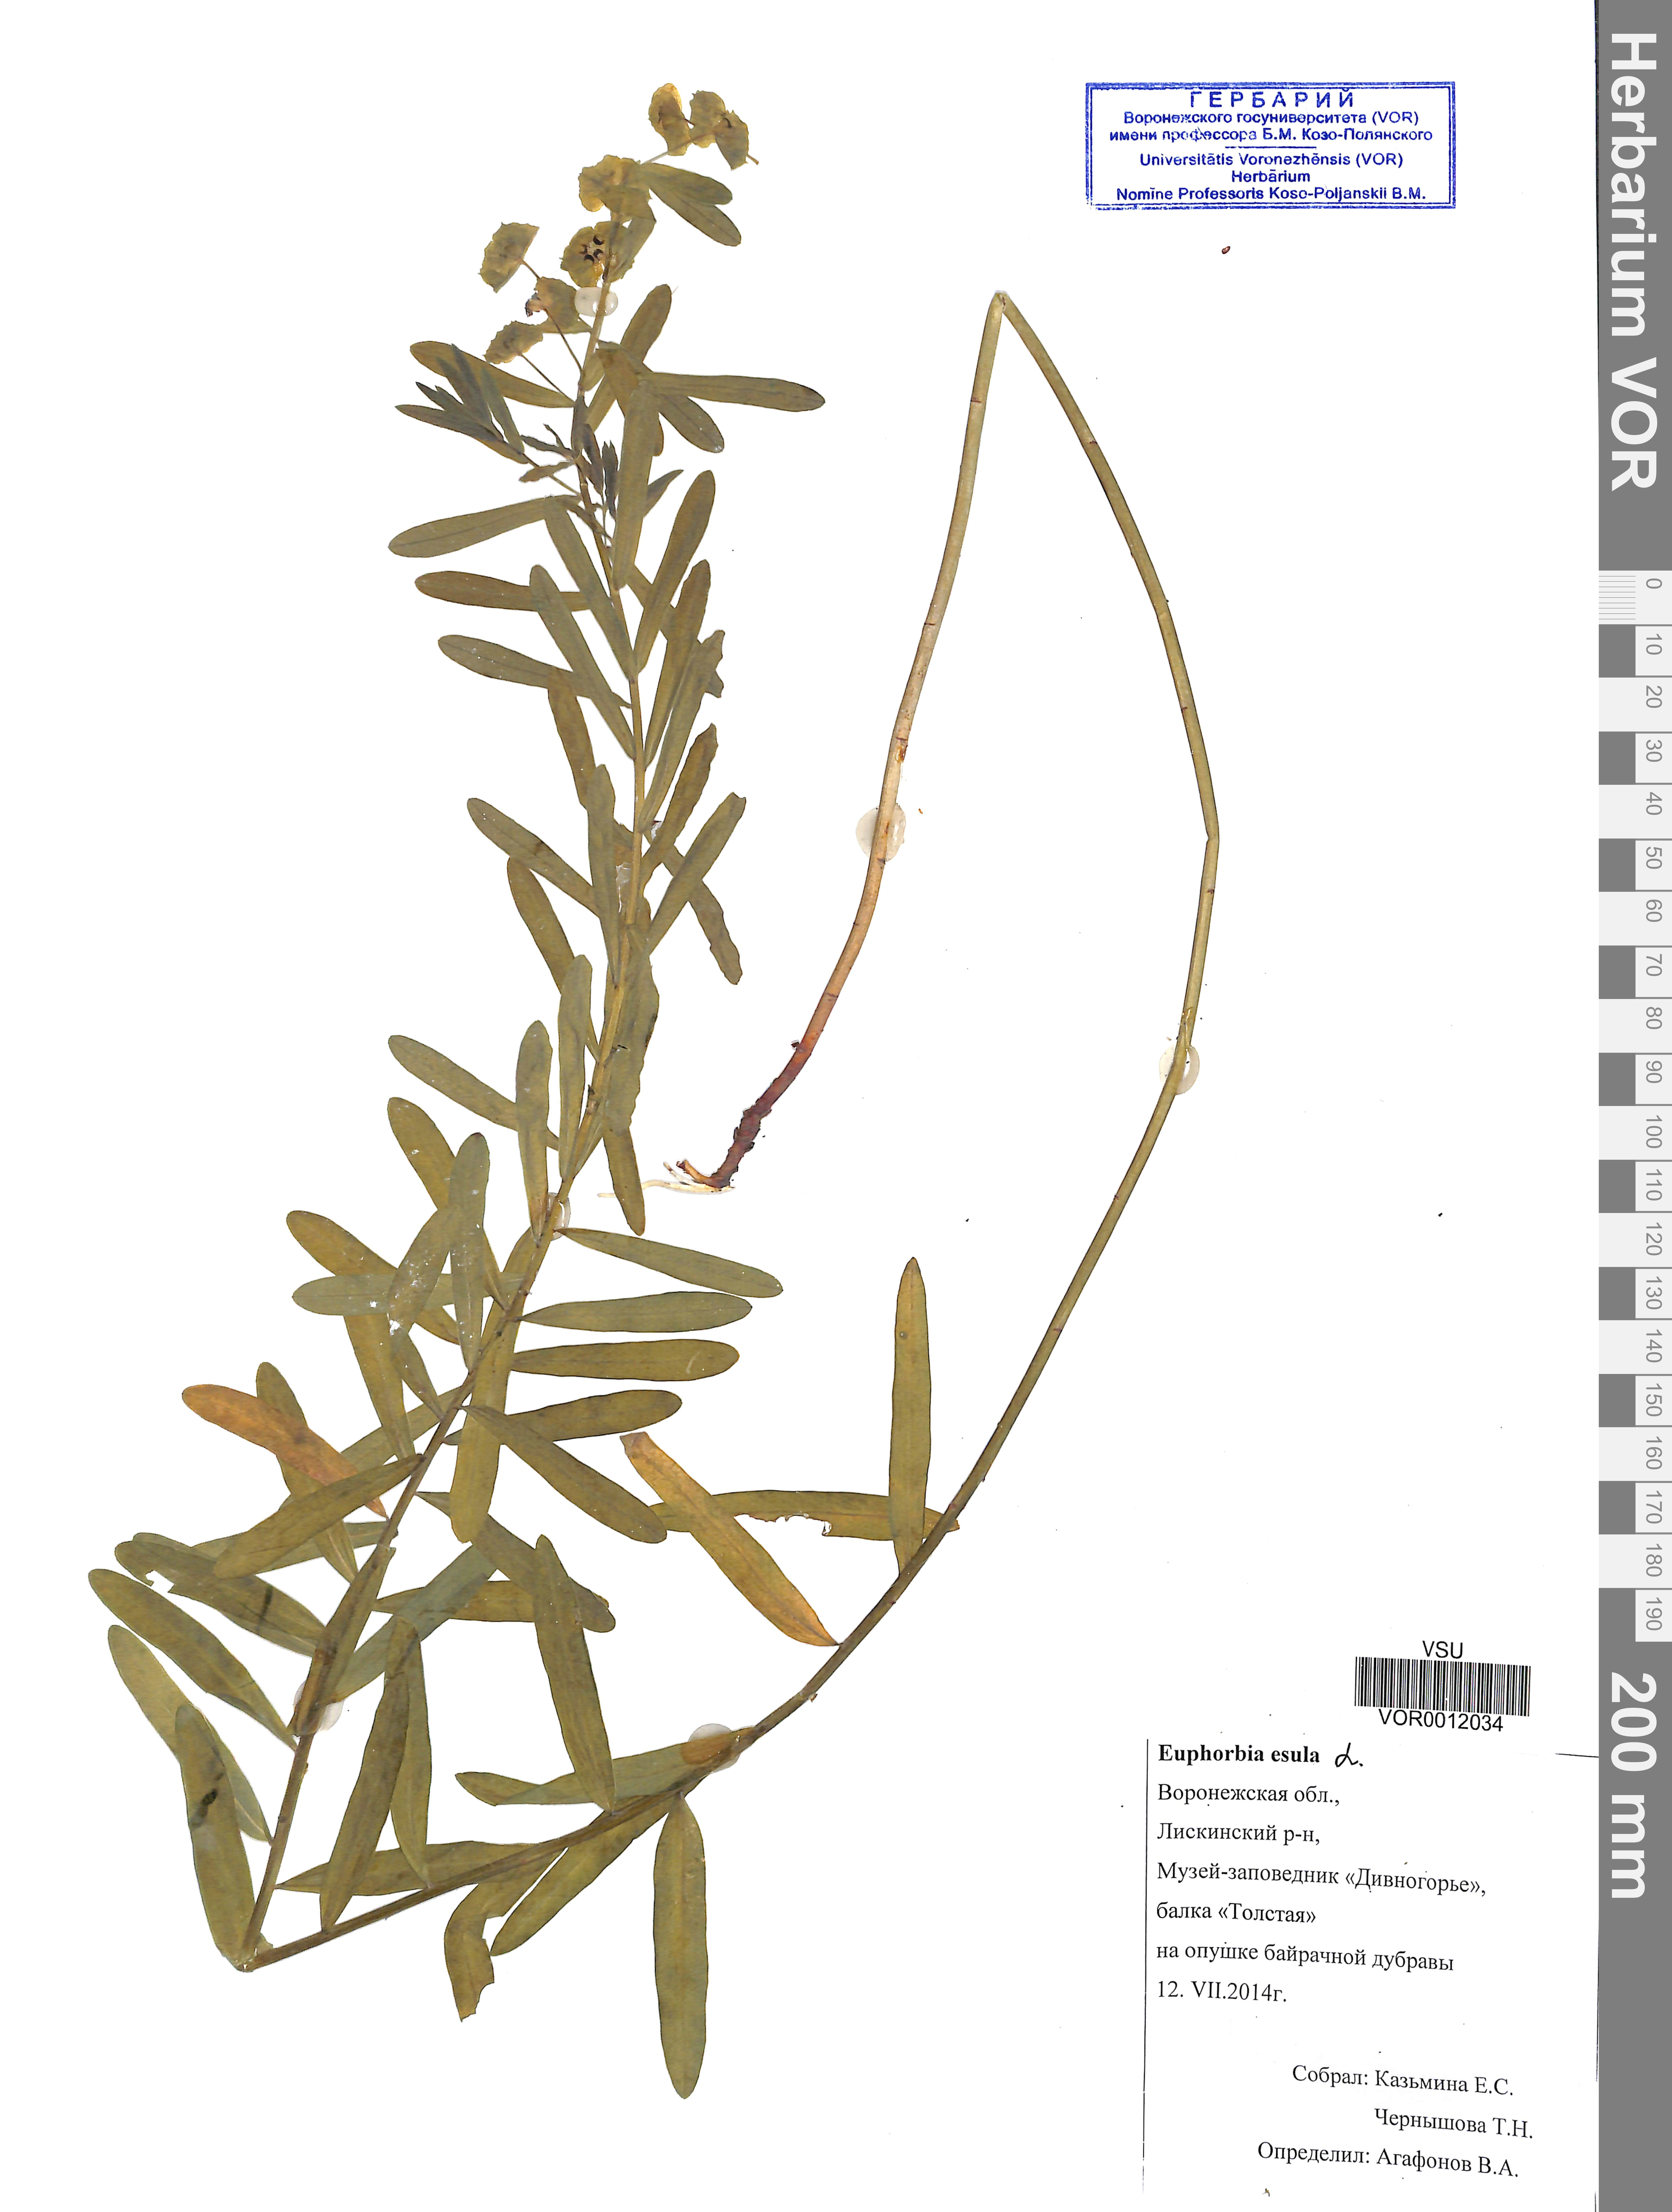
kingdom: Plantae
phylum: Tracheophyta
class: Magnoliopsida
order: Malpighiales
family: Euphorbiaceae
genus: Euphorbia
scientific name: Euphorbia esula
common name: Leafy spurge
